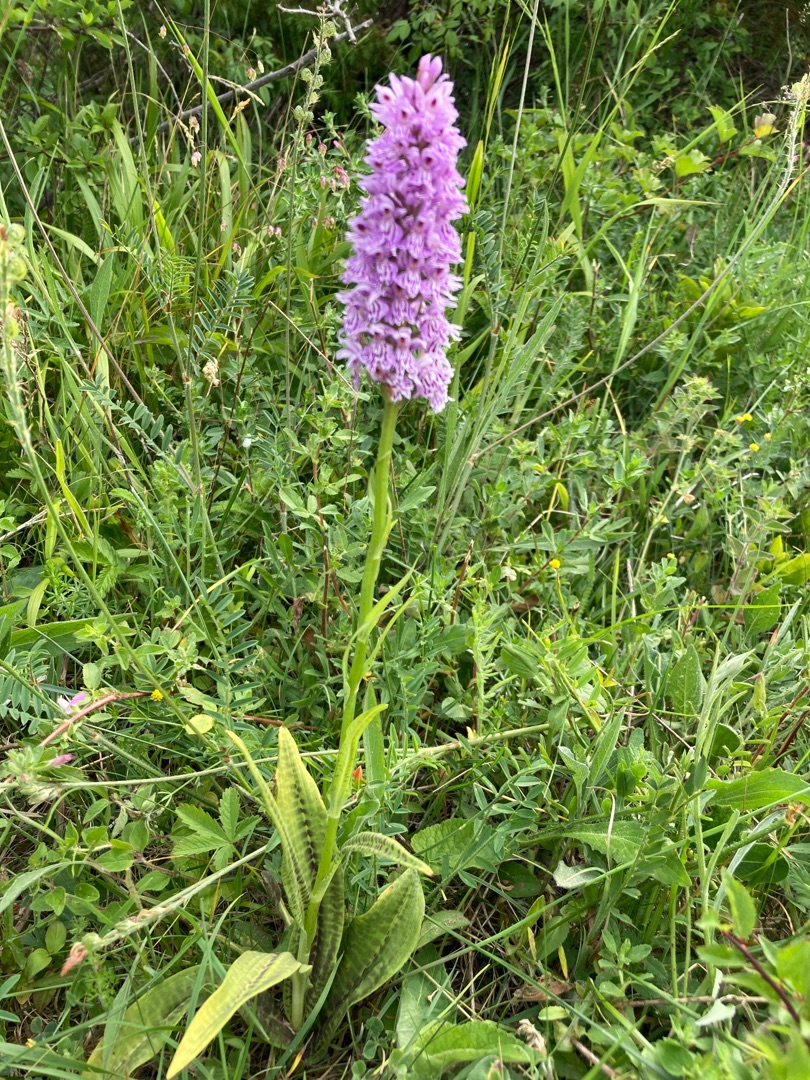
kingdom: Plantae
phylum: Tracheophyta
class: Liliopsida
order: Asparagales
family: Orchidaceae
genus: Dactylorhiza
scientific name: Dactylorhiza maculata
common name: Skov-gøgeurt
